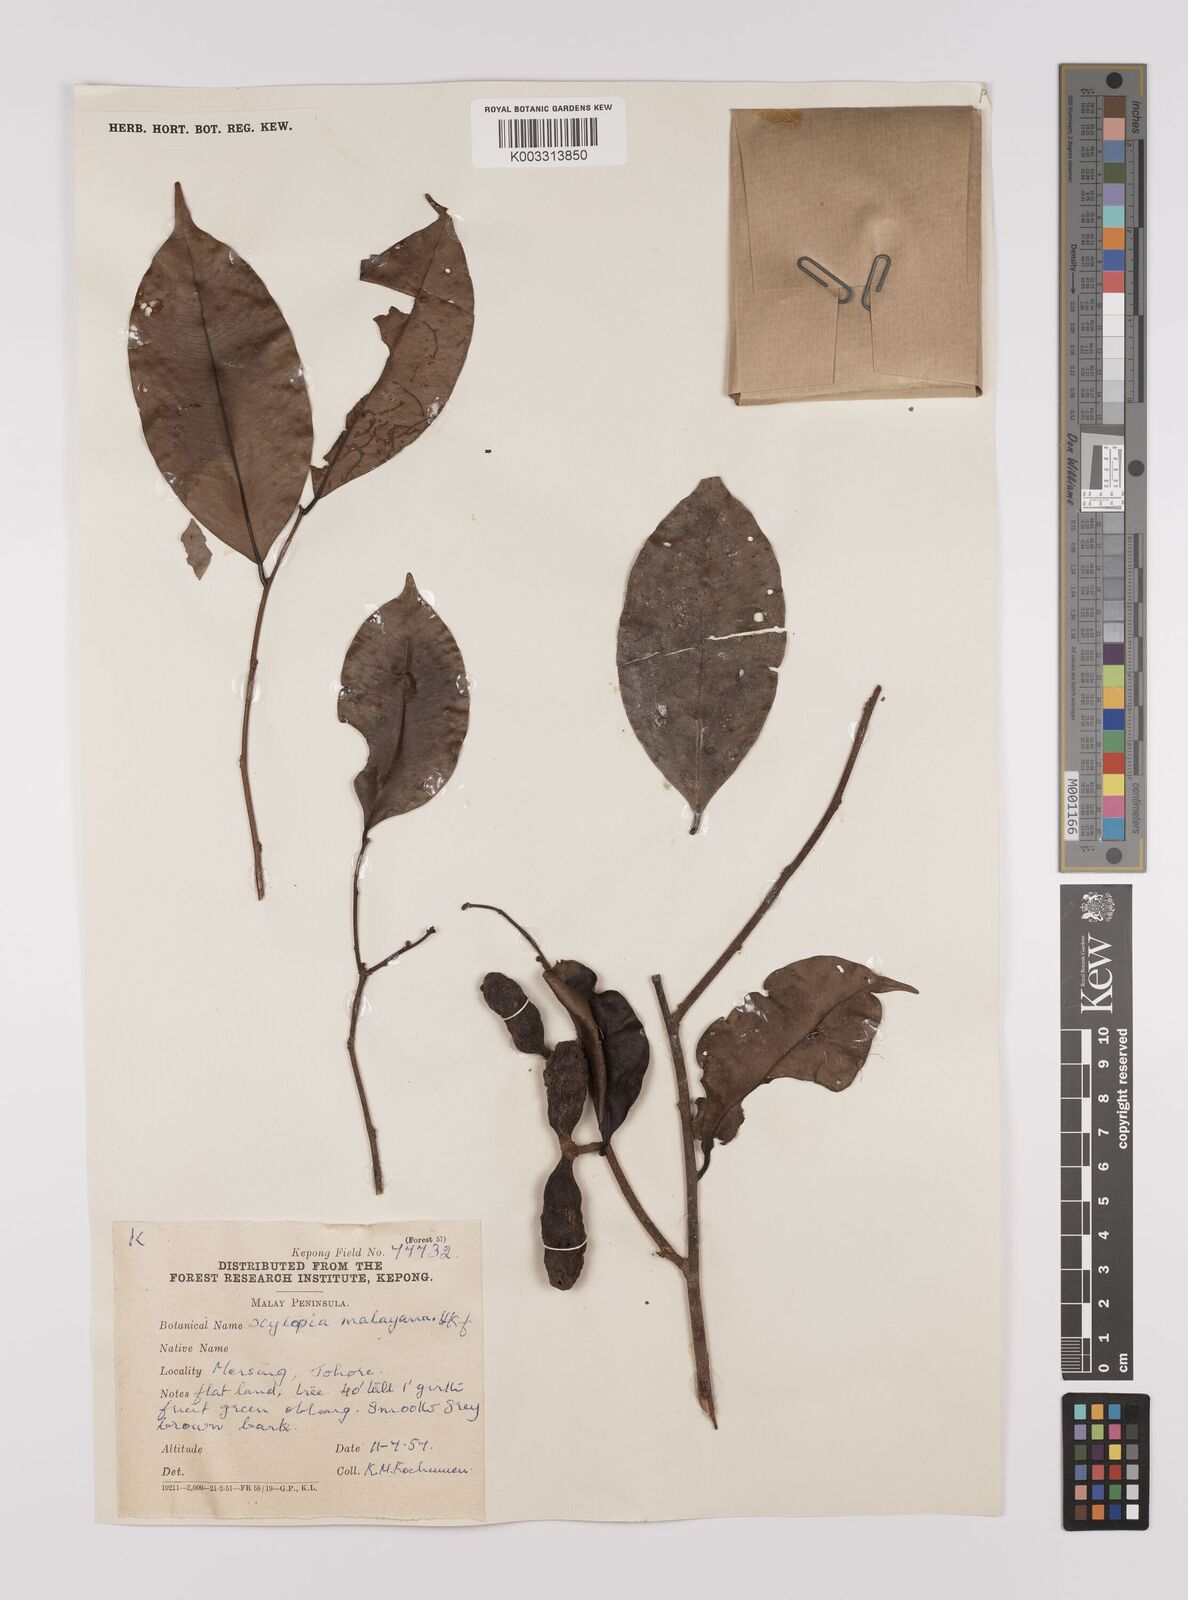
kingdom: Plantae
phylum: Tracheophyta
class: Magnoliopsida
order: Magnoliales
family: Annonaceae
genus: Xylopia
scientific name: Xylopia malayana
